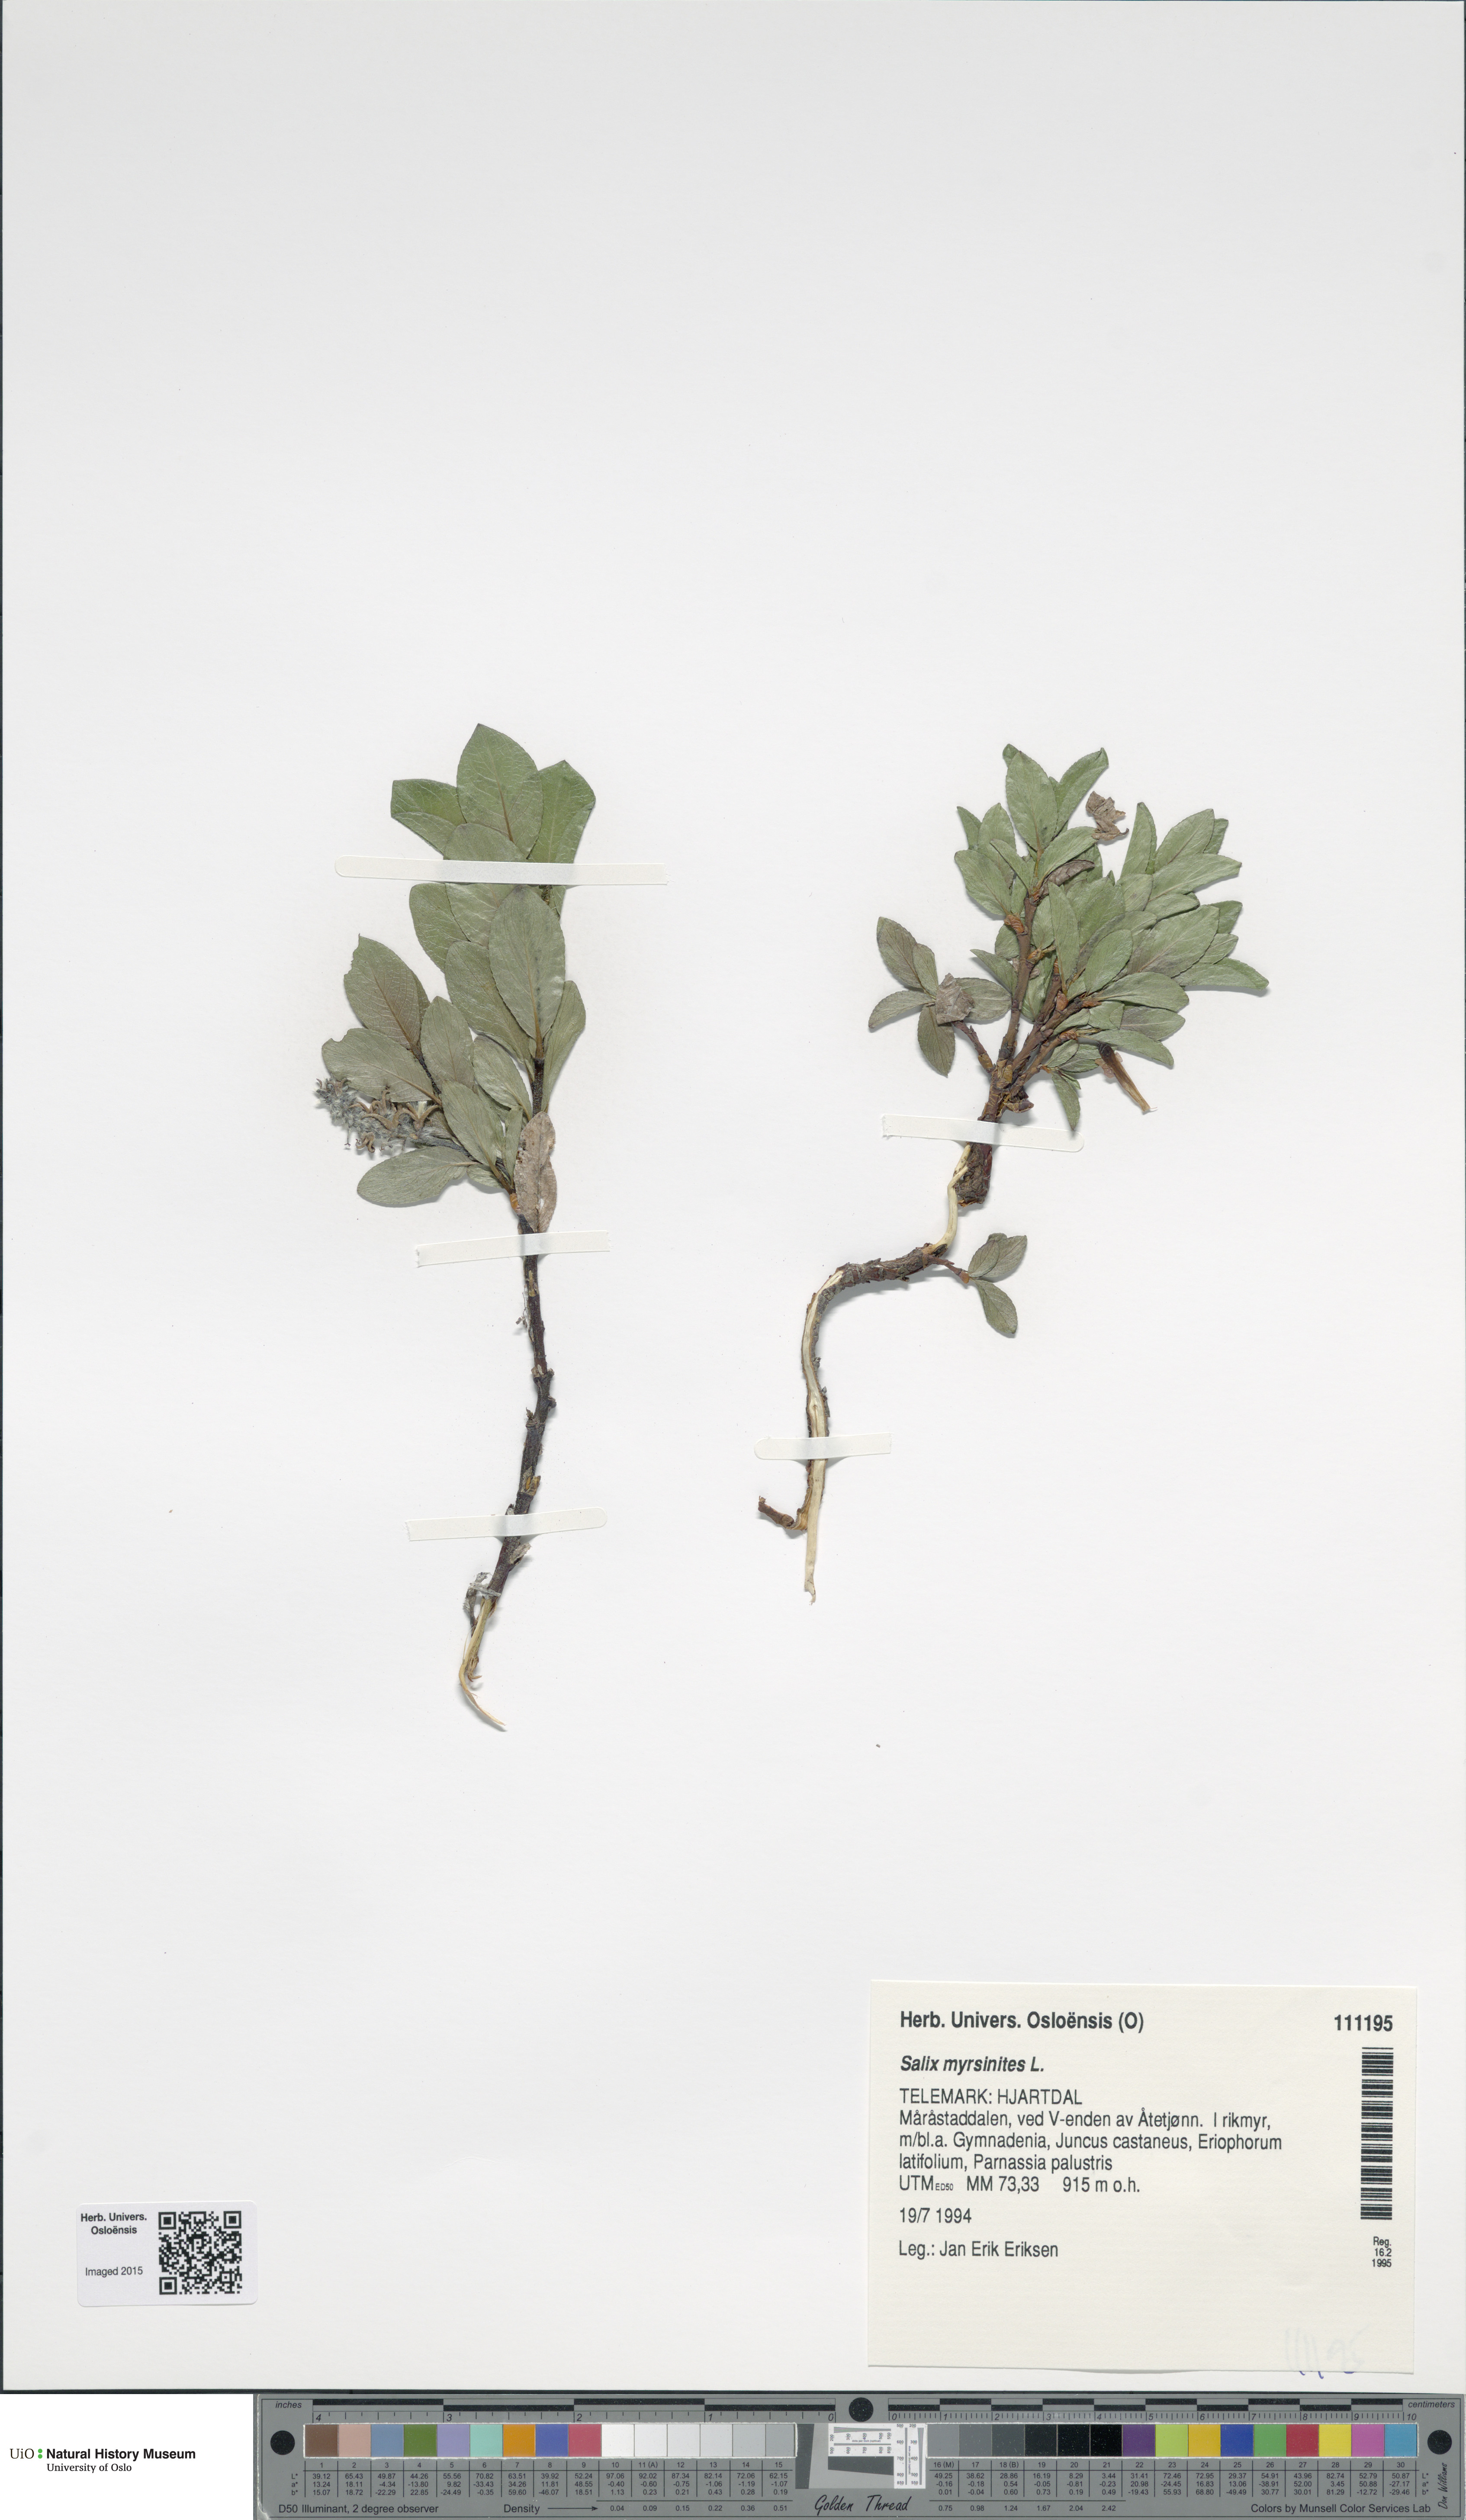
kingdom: Plantae
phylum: Tracheophyta
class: Magnoliopsida
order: Malpighiales
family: Salicaceae
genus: Salix
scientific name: Salix myrsinites
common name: Myrtle willow
